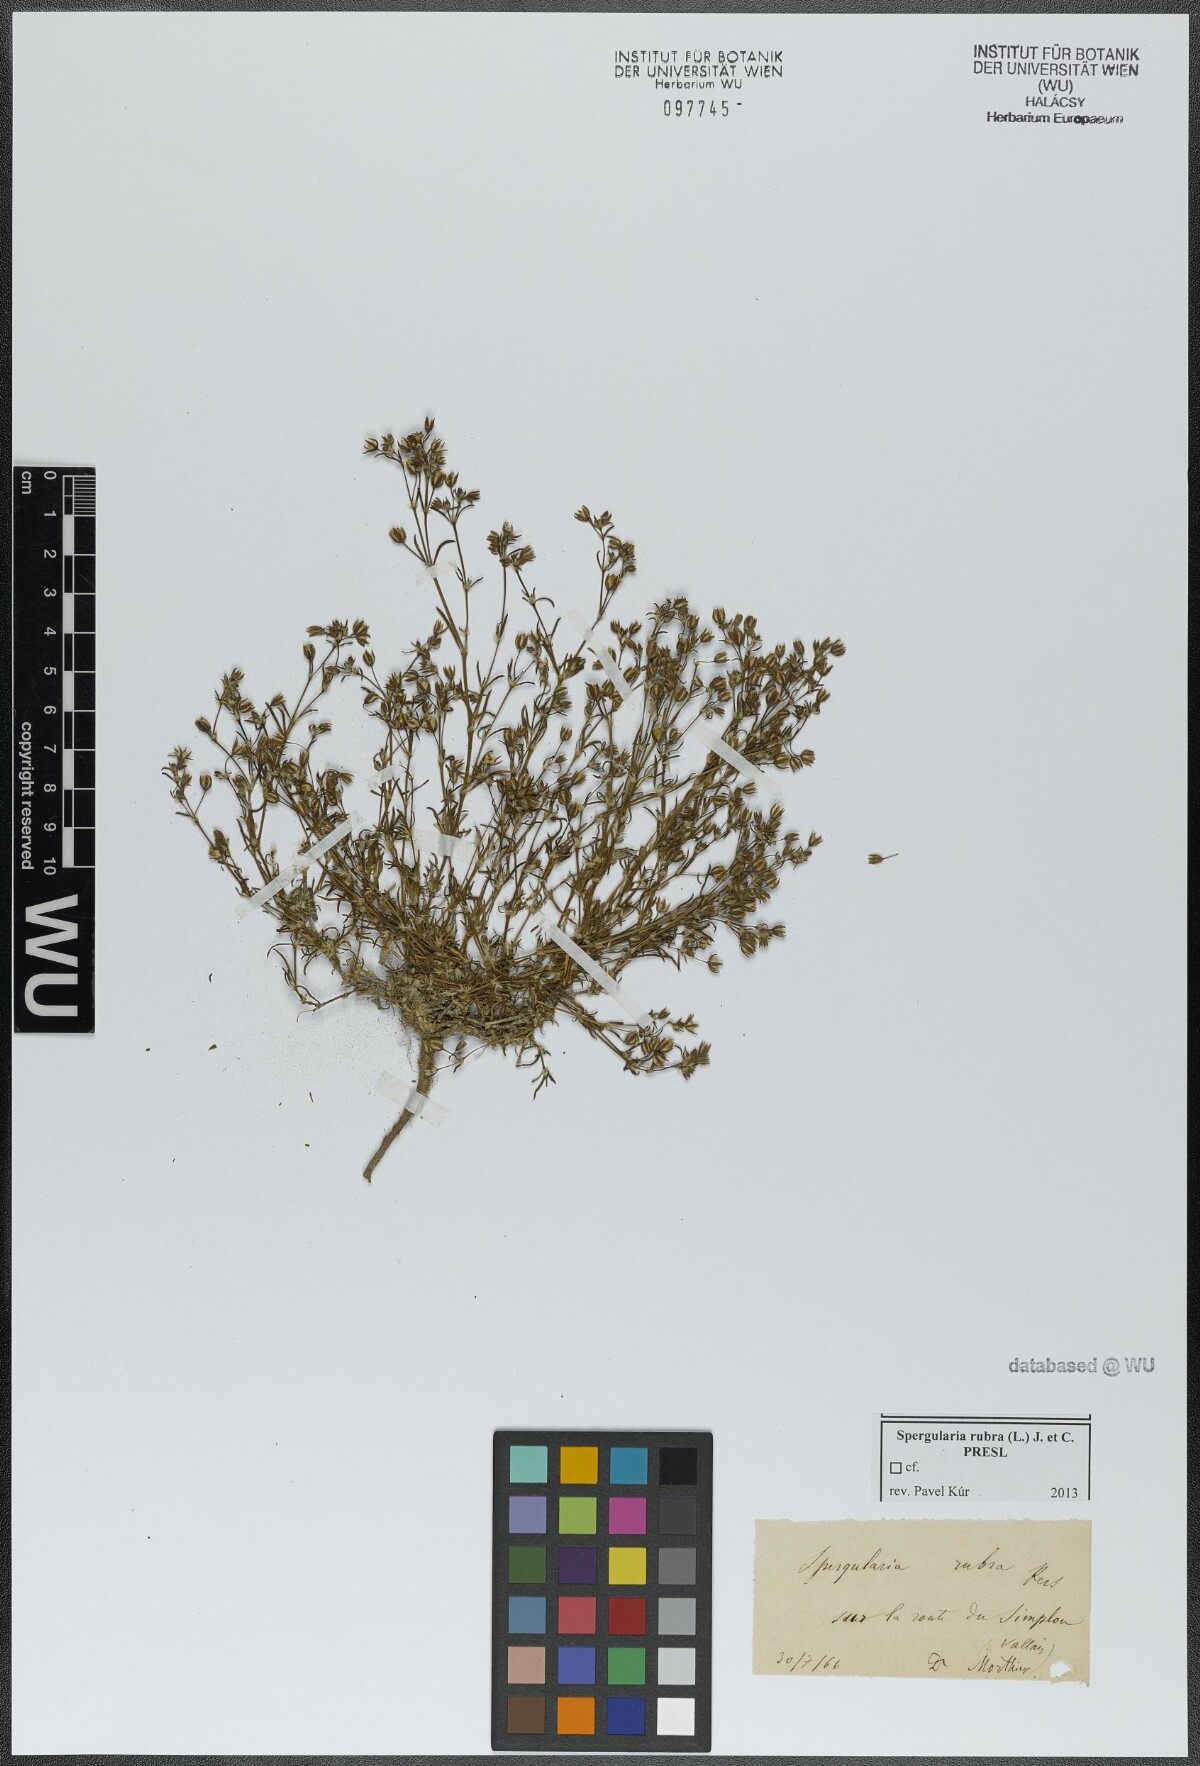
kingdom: Plantae
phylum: Tracheophyta
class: Magnoliopsida
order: Caryophyllales
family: Caryophyllaceae
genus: Spergularia
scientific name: Spergularia rubra
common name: Red sand-spurrey
